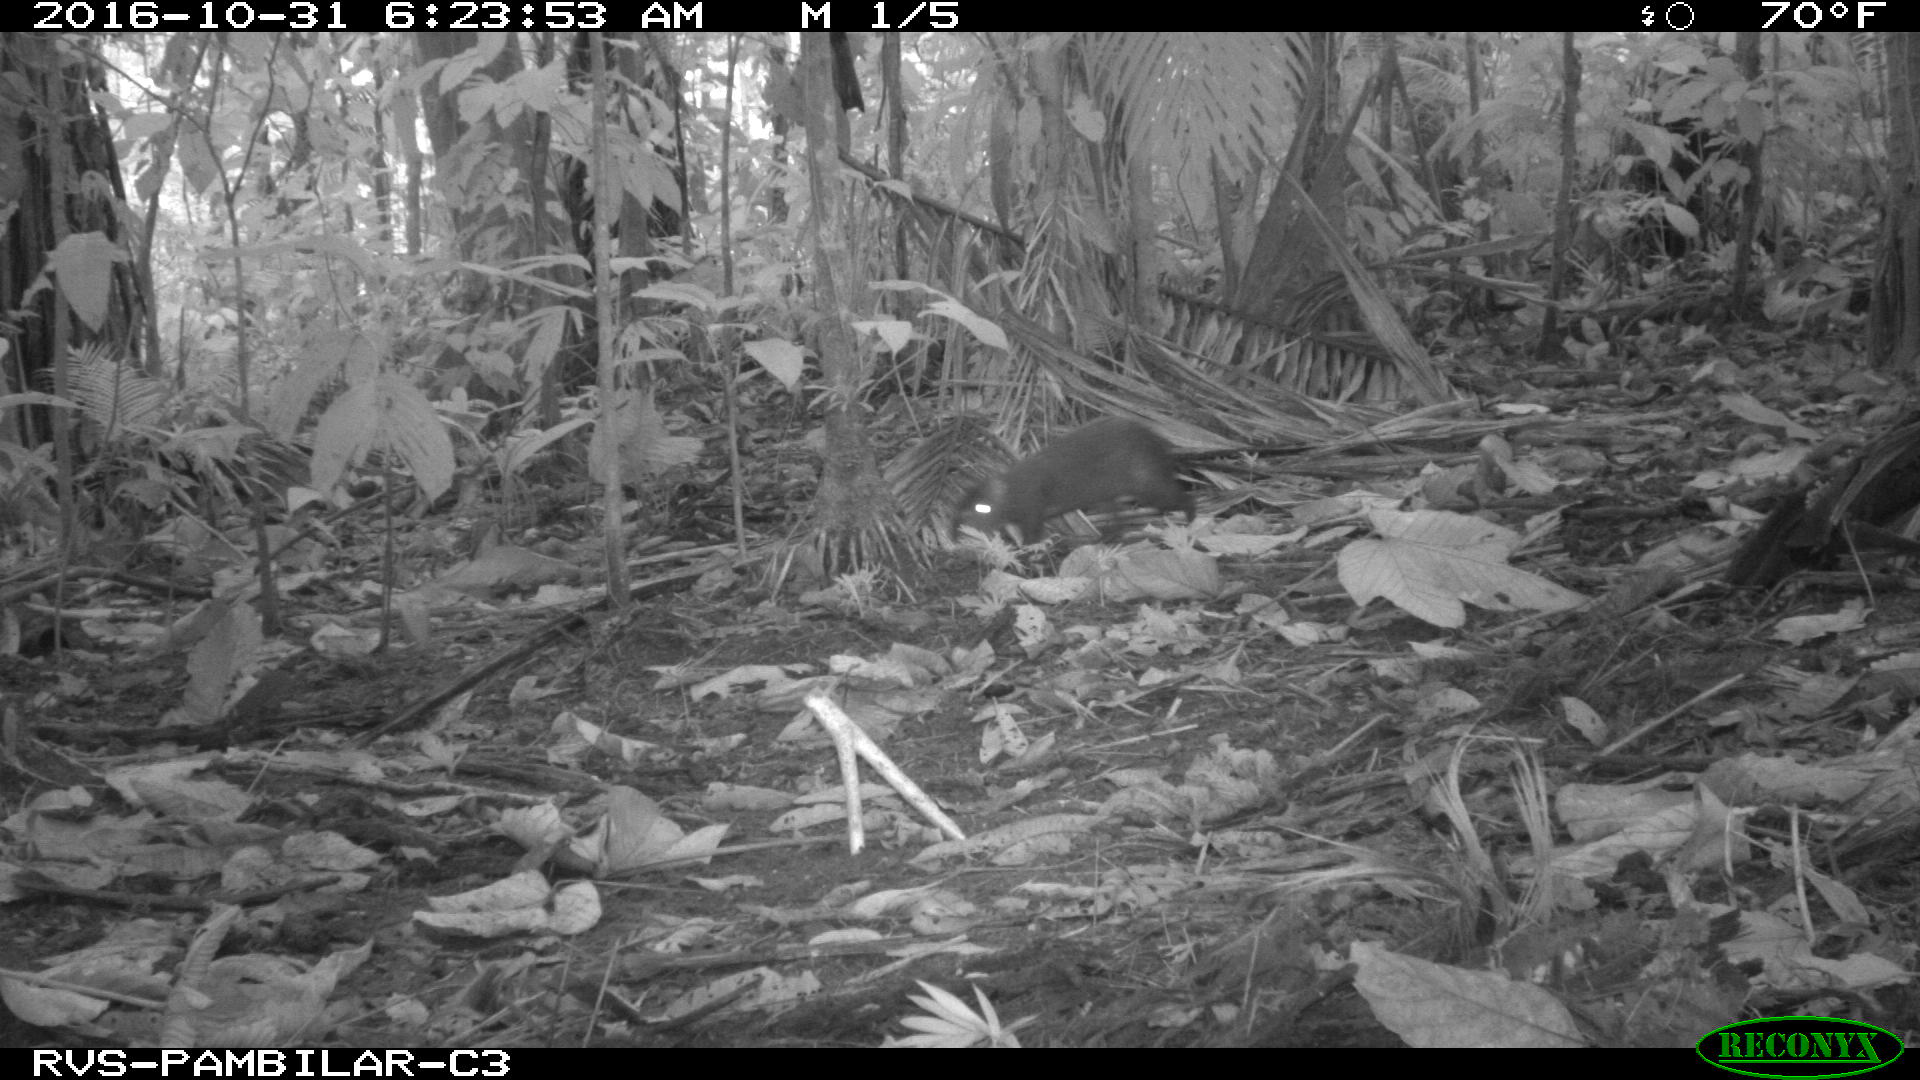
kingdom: Animalia
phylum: Chordata
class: Mammalia
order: Rodentia
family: Dasyproctidae
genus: Dasyprocta
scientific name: Dasyprocta punctata
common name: Central american agouti
